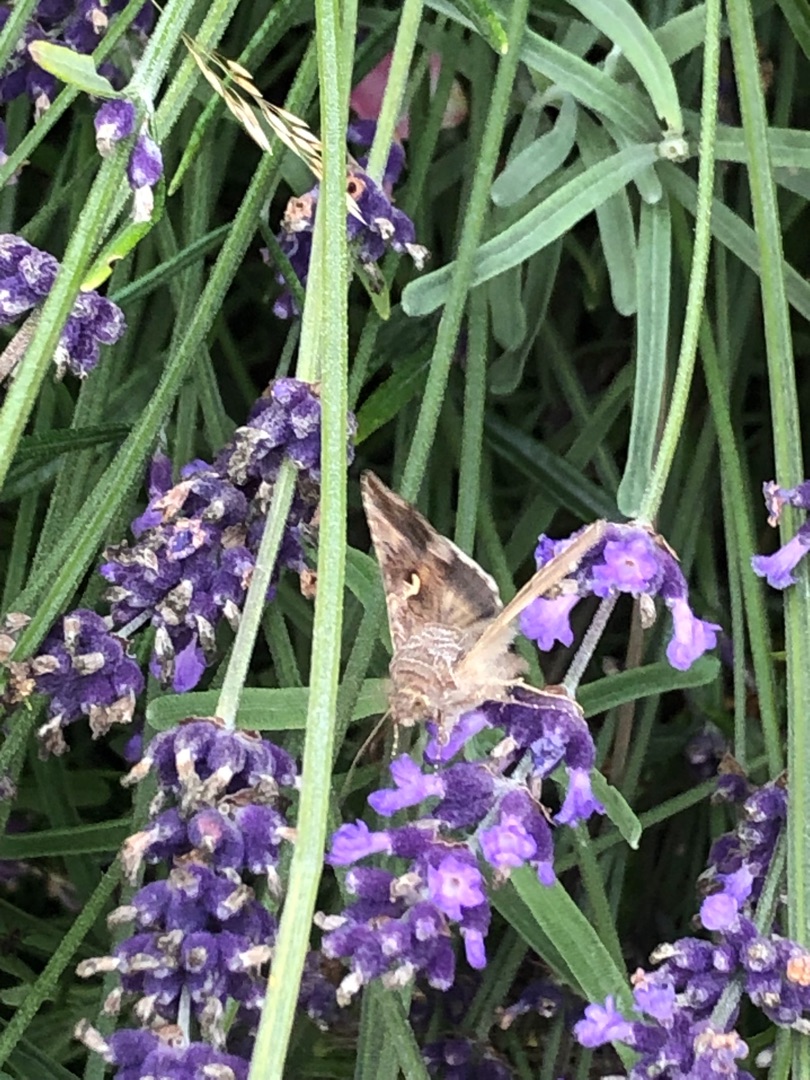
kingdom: Animalia
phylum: Arthropoda
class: Insecta
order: Lepidoptera
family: Noctuidae
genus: Autographa
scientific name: Autographa gamma
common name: Gammaugle
